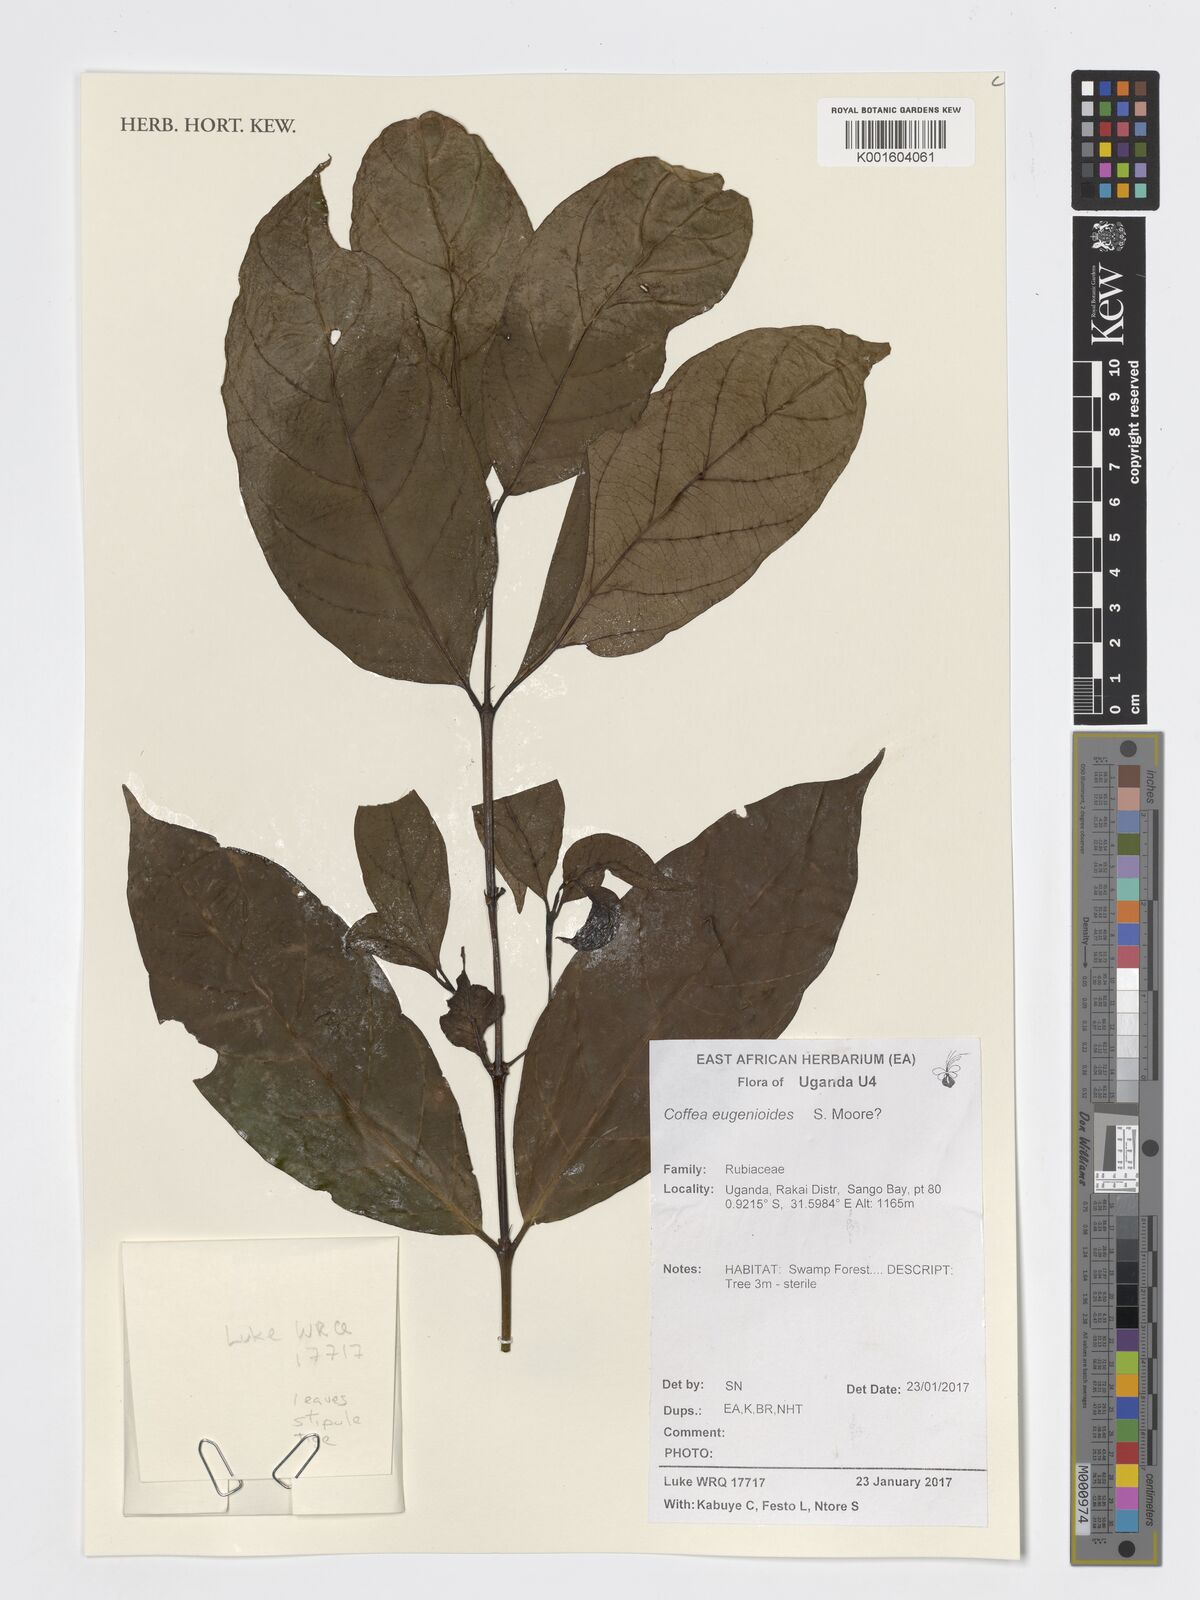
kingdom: Plantae
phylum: Tracheophyta
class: Magnoliopsida
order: Gentianales
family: Rubiaceae
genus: Coffea
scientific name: Coffea eugenioides
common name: Nandi coffee
